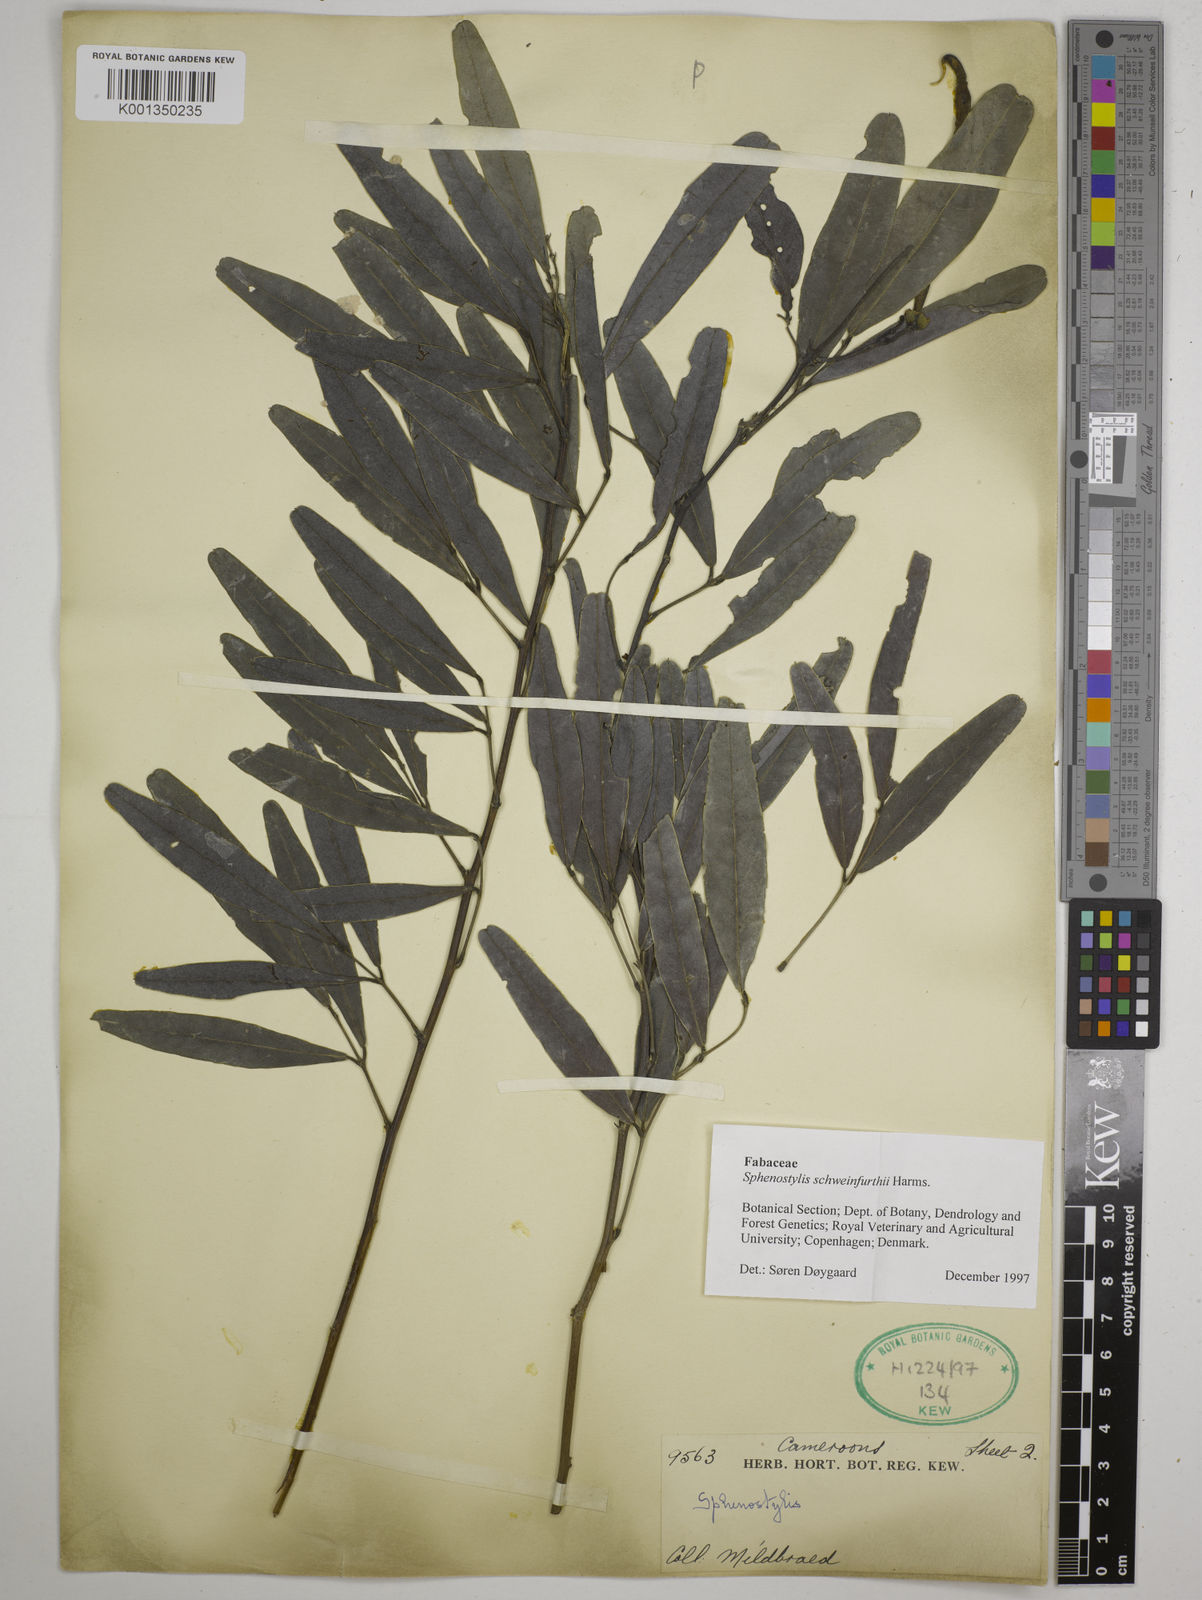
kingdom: Plantae
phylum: Tracheophyta
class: Magnoliopsida
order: Fabales
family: Fabaceae
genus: Sphenostylis
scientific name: Sphenostylis schweinfurthii
